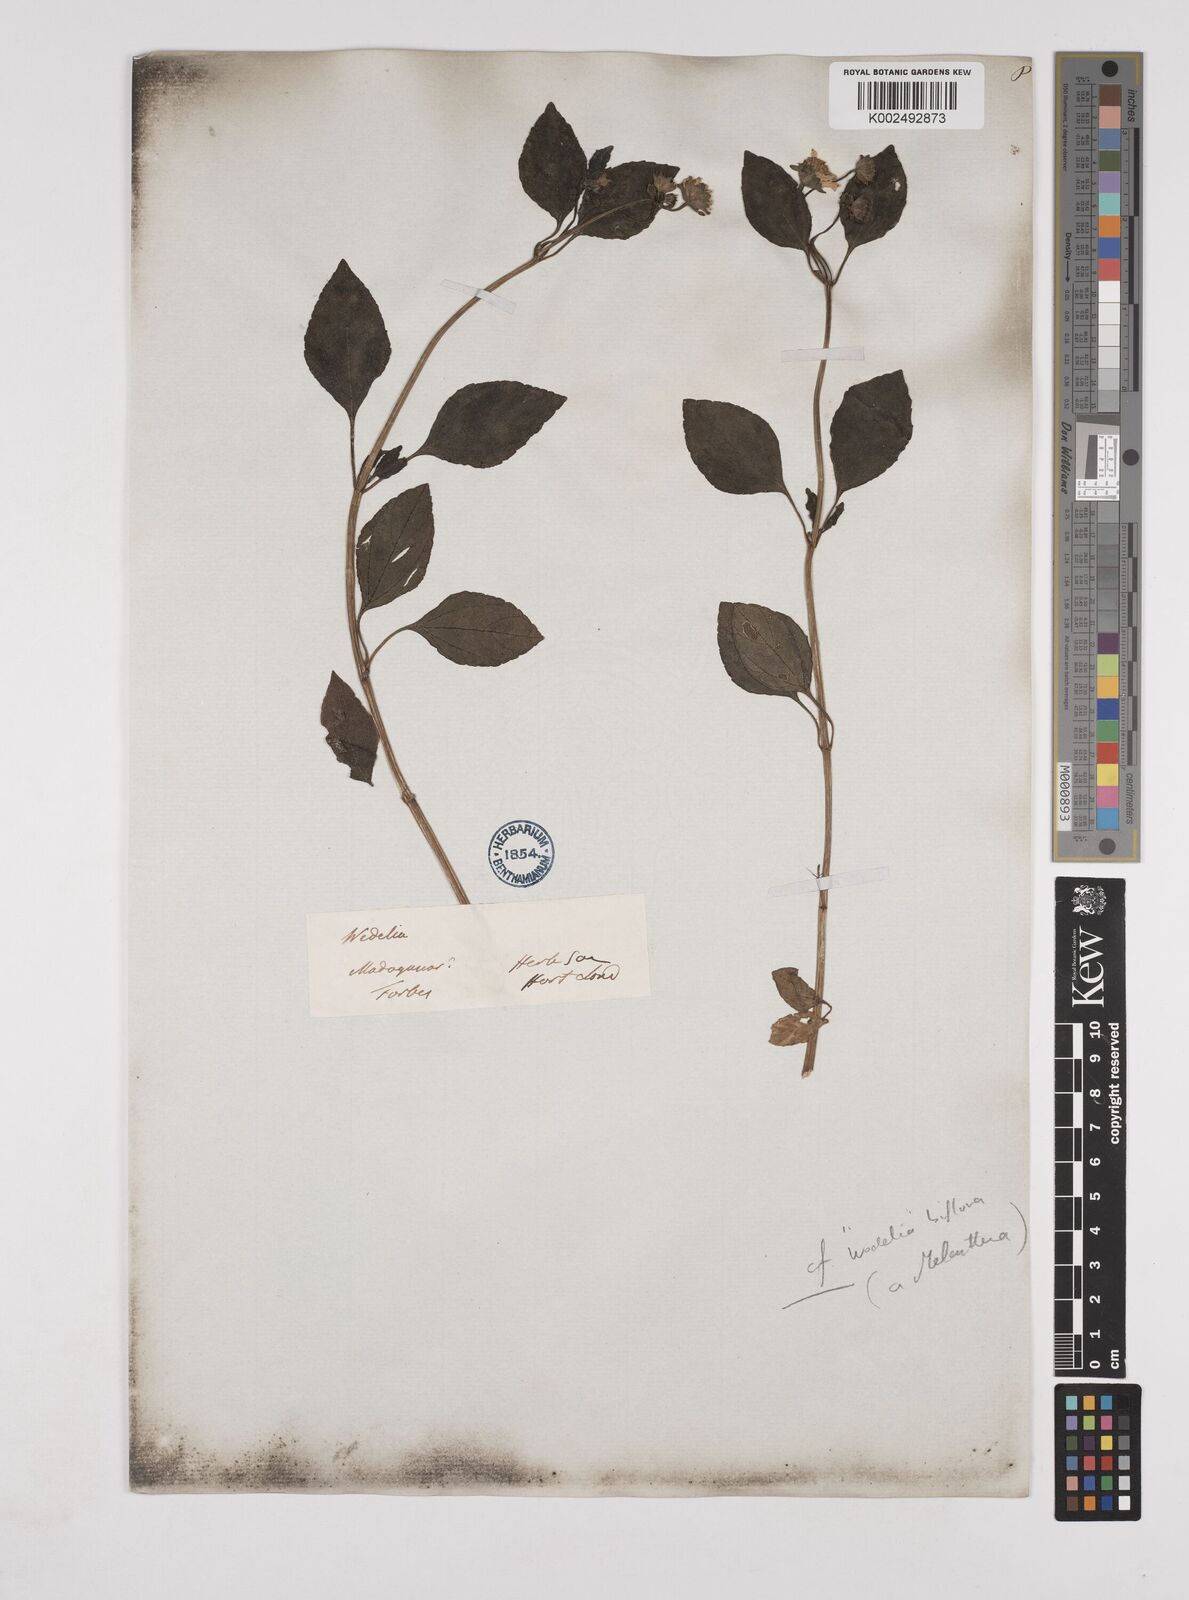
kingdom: Plantae
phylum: Tracheophyta
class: Magnoliopsida
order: Asterales
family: Asteraceae
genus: Wollastonia
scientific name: Wollastonia biflora
